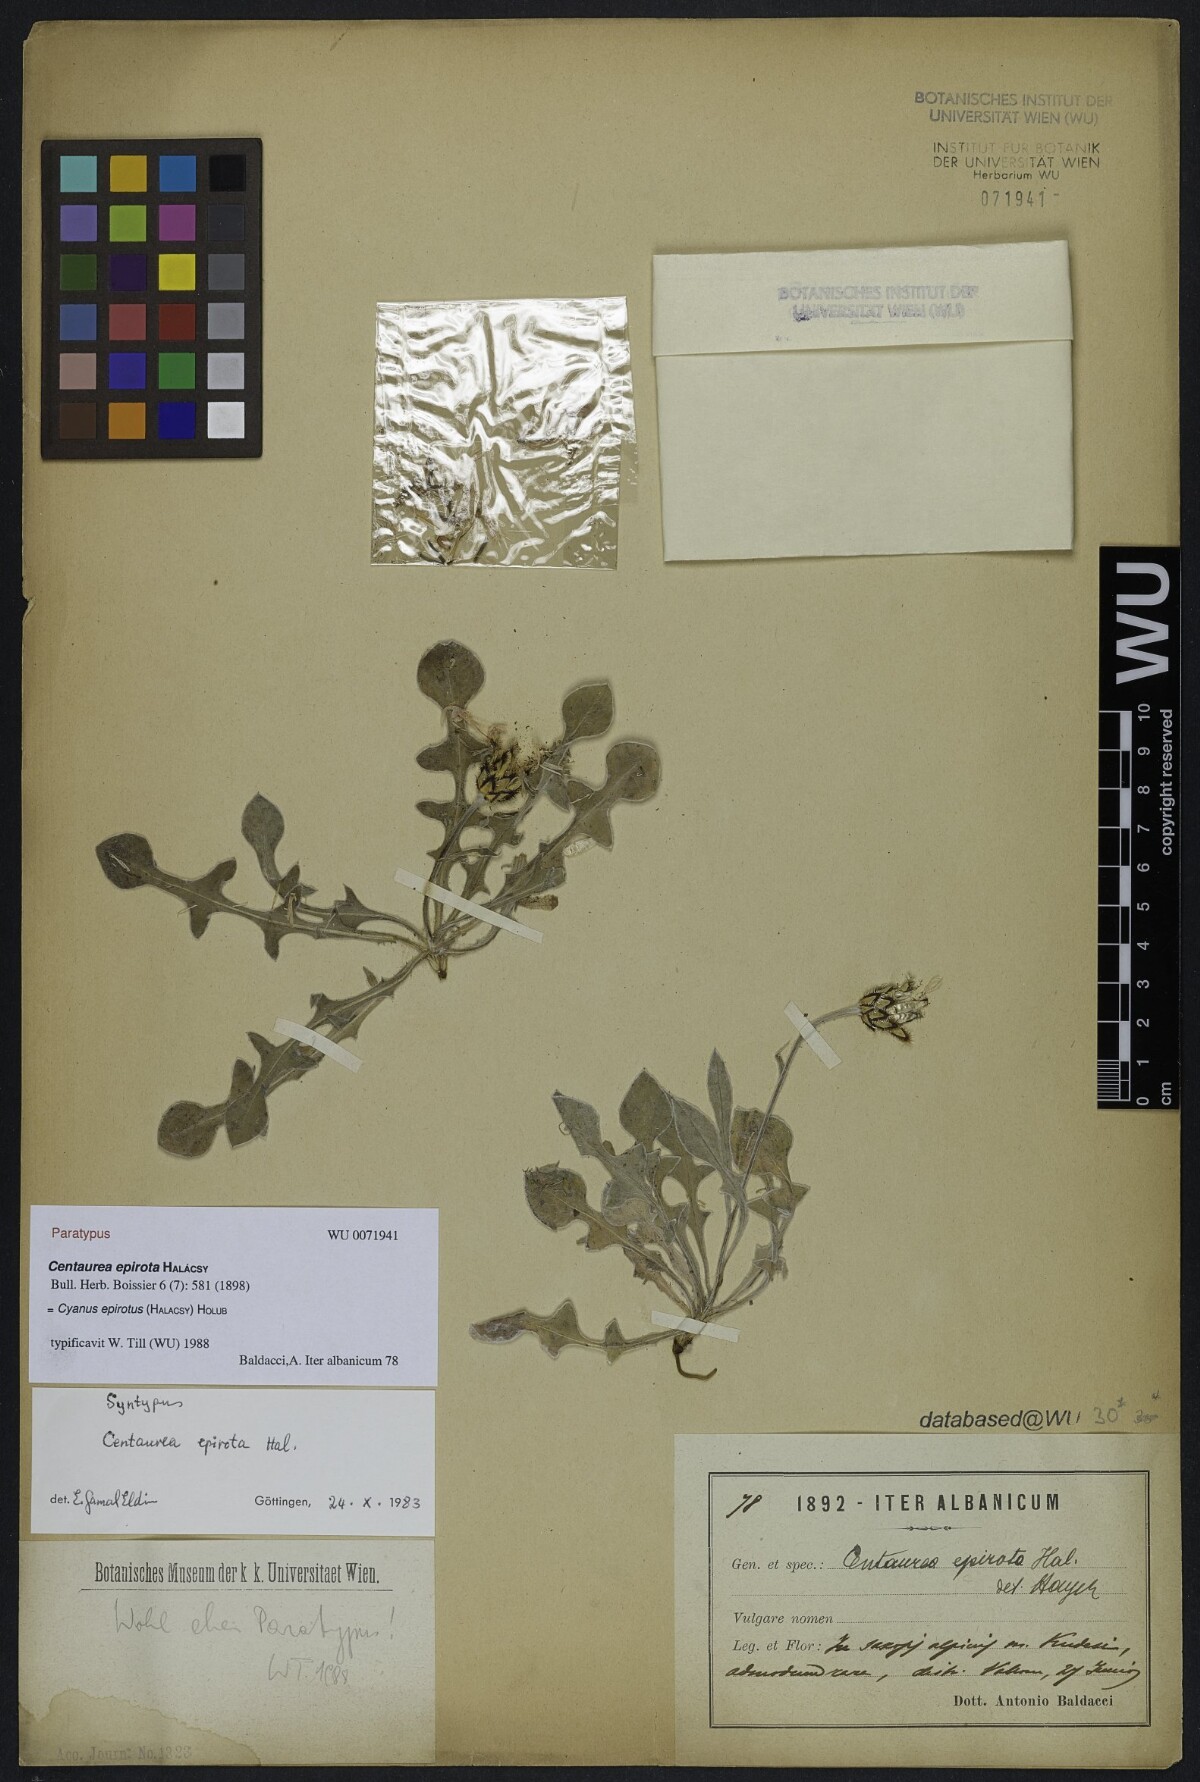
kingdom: Plantae
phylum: Tracheophyta
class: Magnoliopsida
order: Asterales
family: Asteraceae
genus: Centaurea
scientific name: Centaurea epirota
